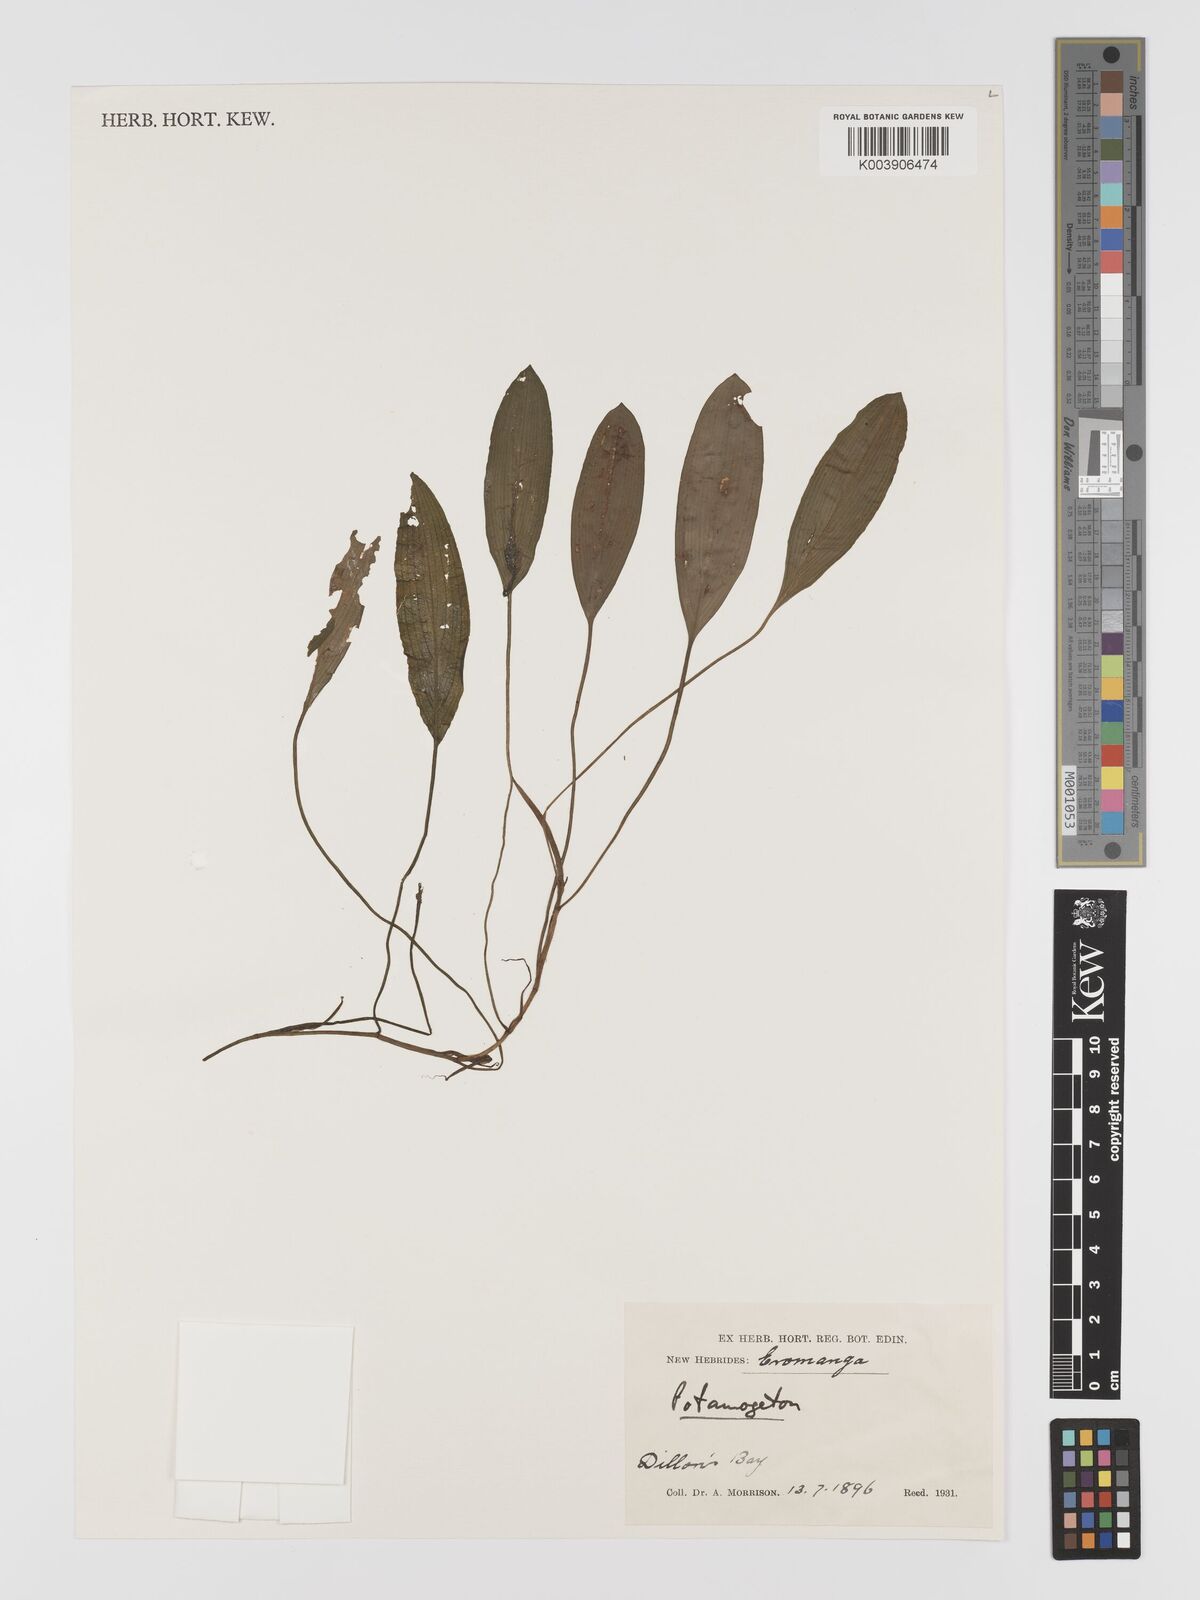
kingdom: Plantae
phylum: Tracheophyta
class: Liliopsida
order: Alismatales
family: Potamogetonaceae
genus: Potamogeton
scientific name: Potamogeton distinctus
